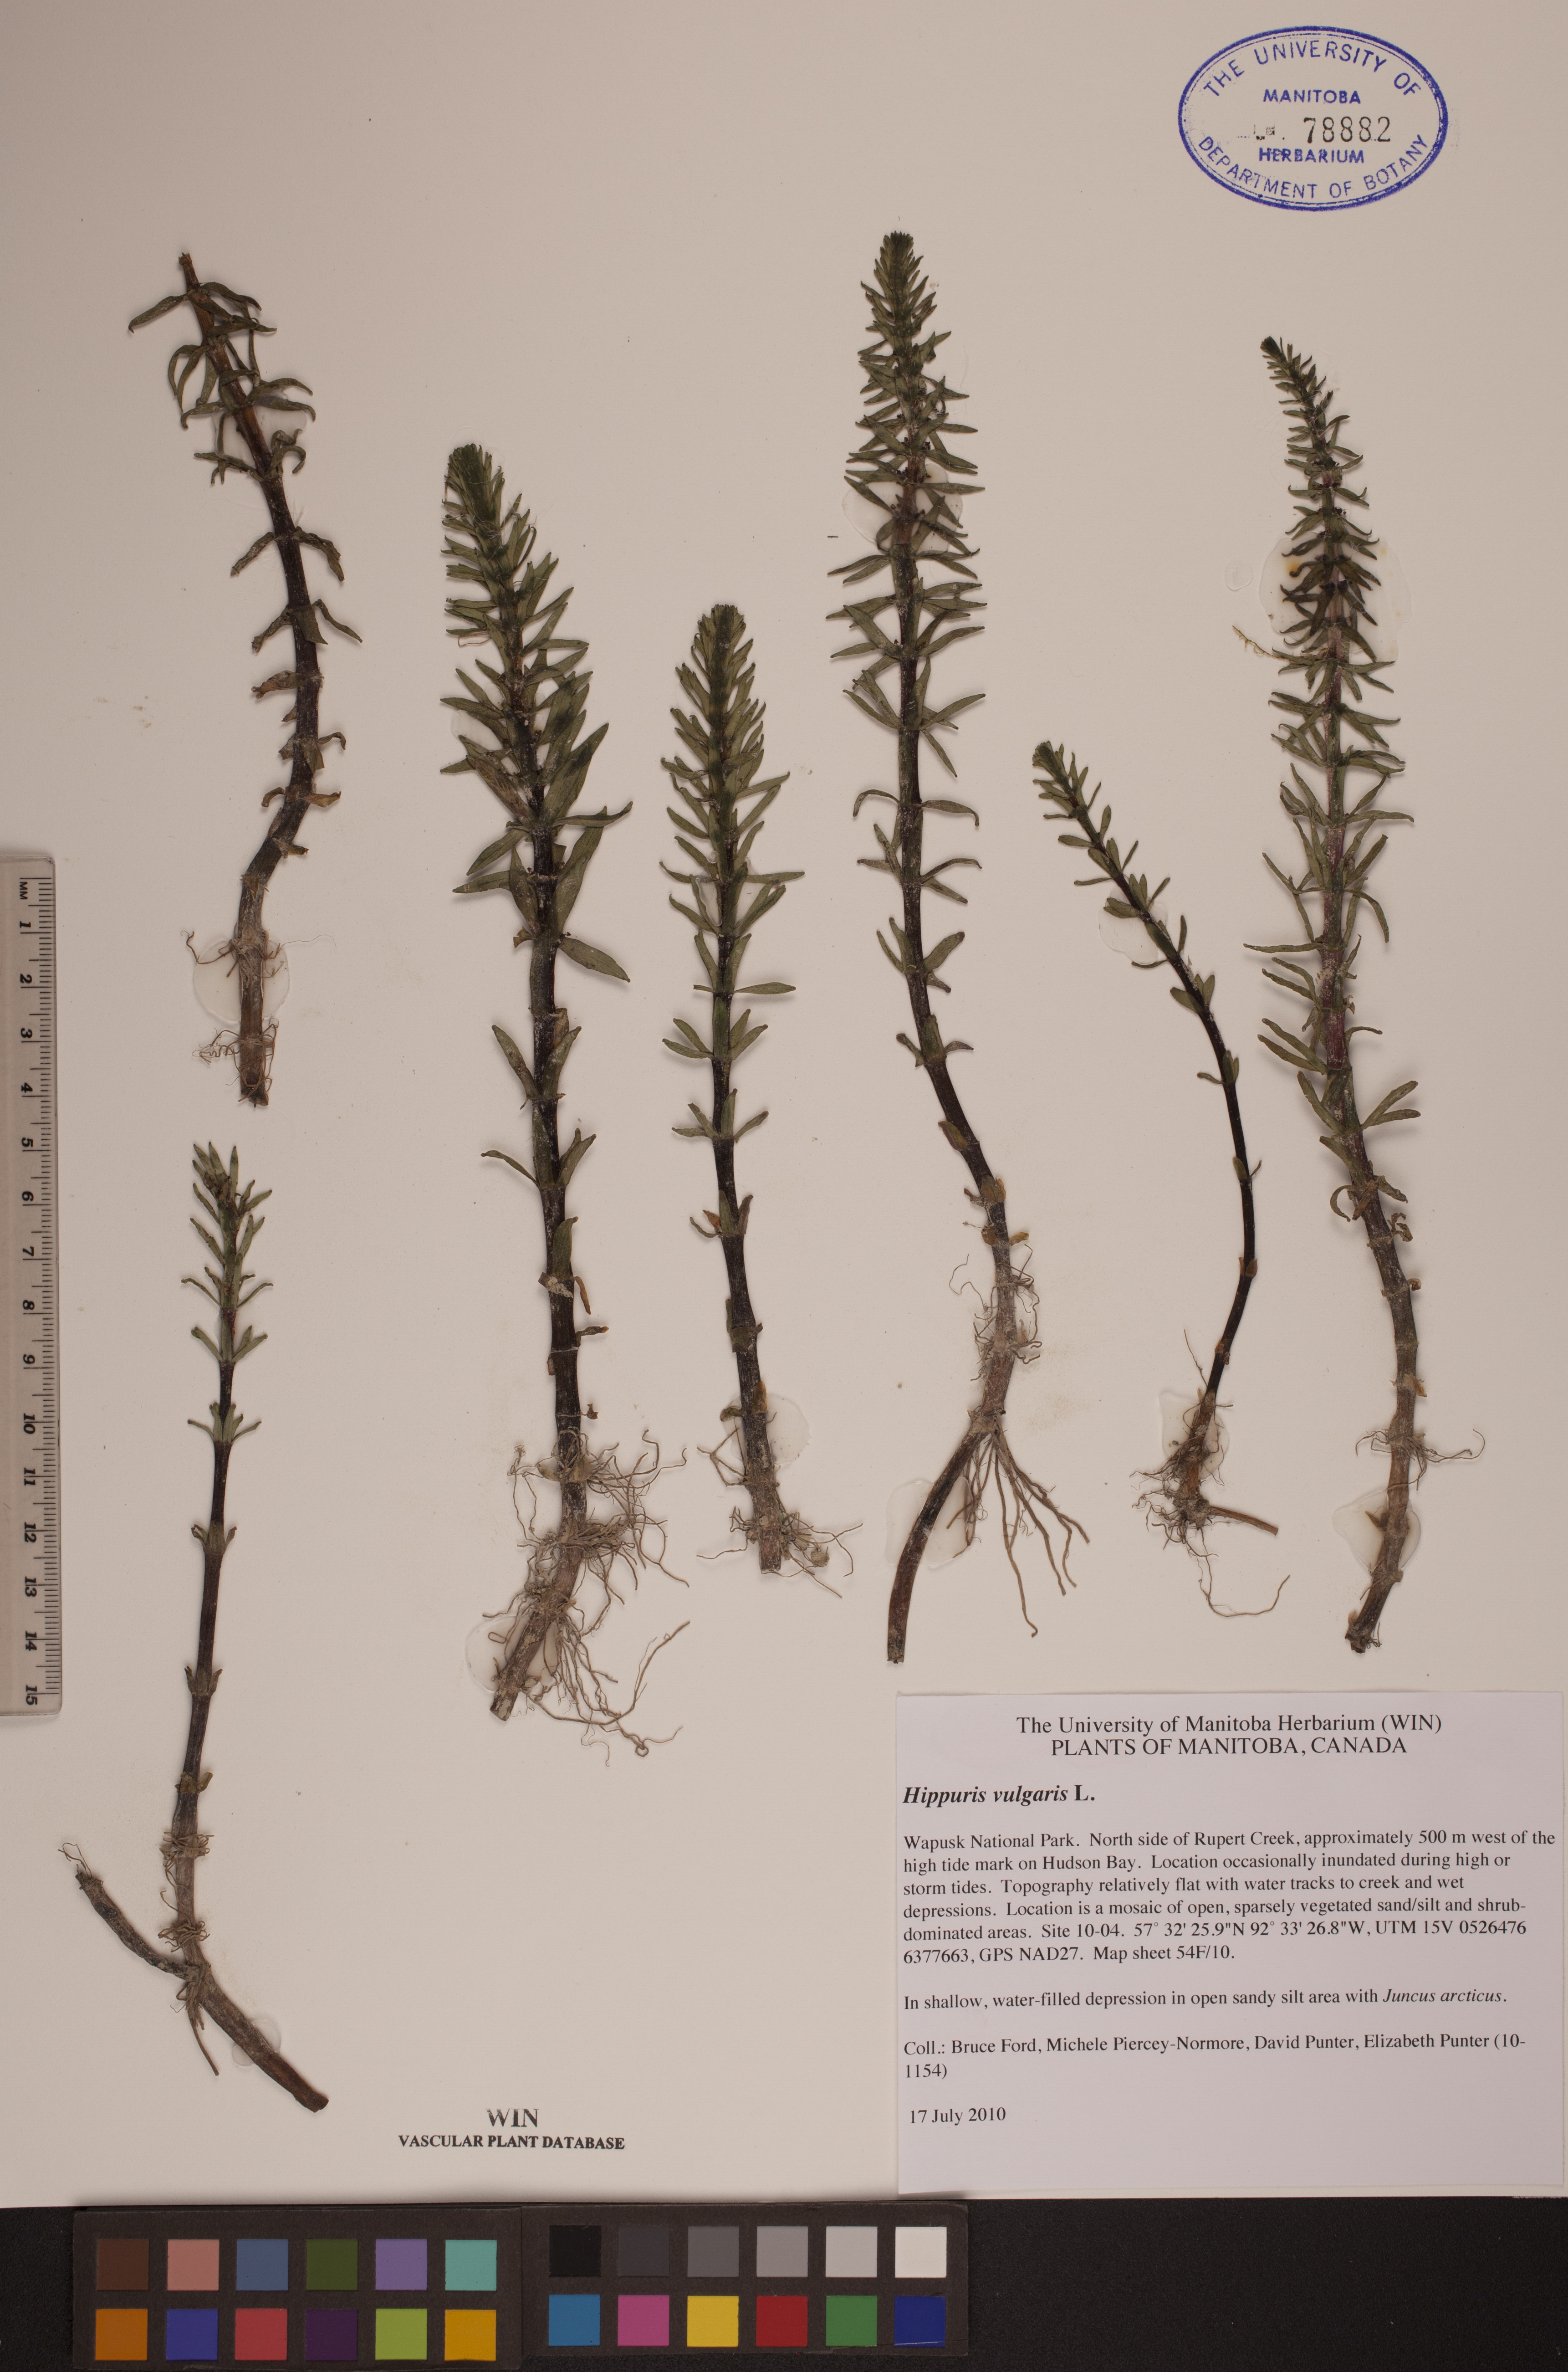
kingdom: Plantae
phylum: Tracheophyta
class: Magnoliopsida
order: Lamiales
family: Plantaginaceae
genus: Hippuris
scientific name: Hippuris vulgaris
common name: Mare's-tail
